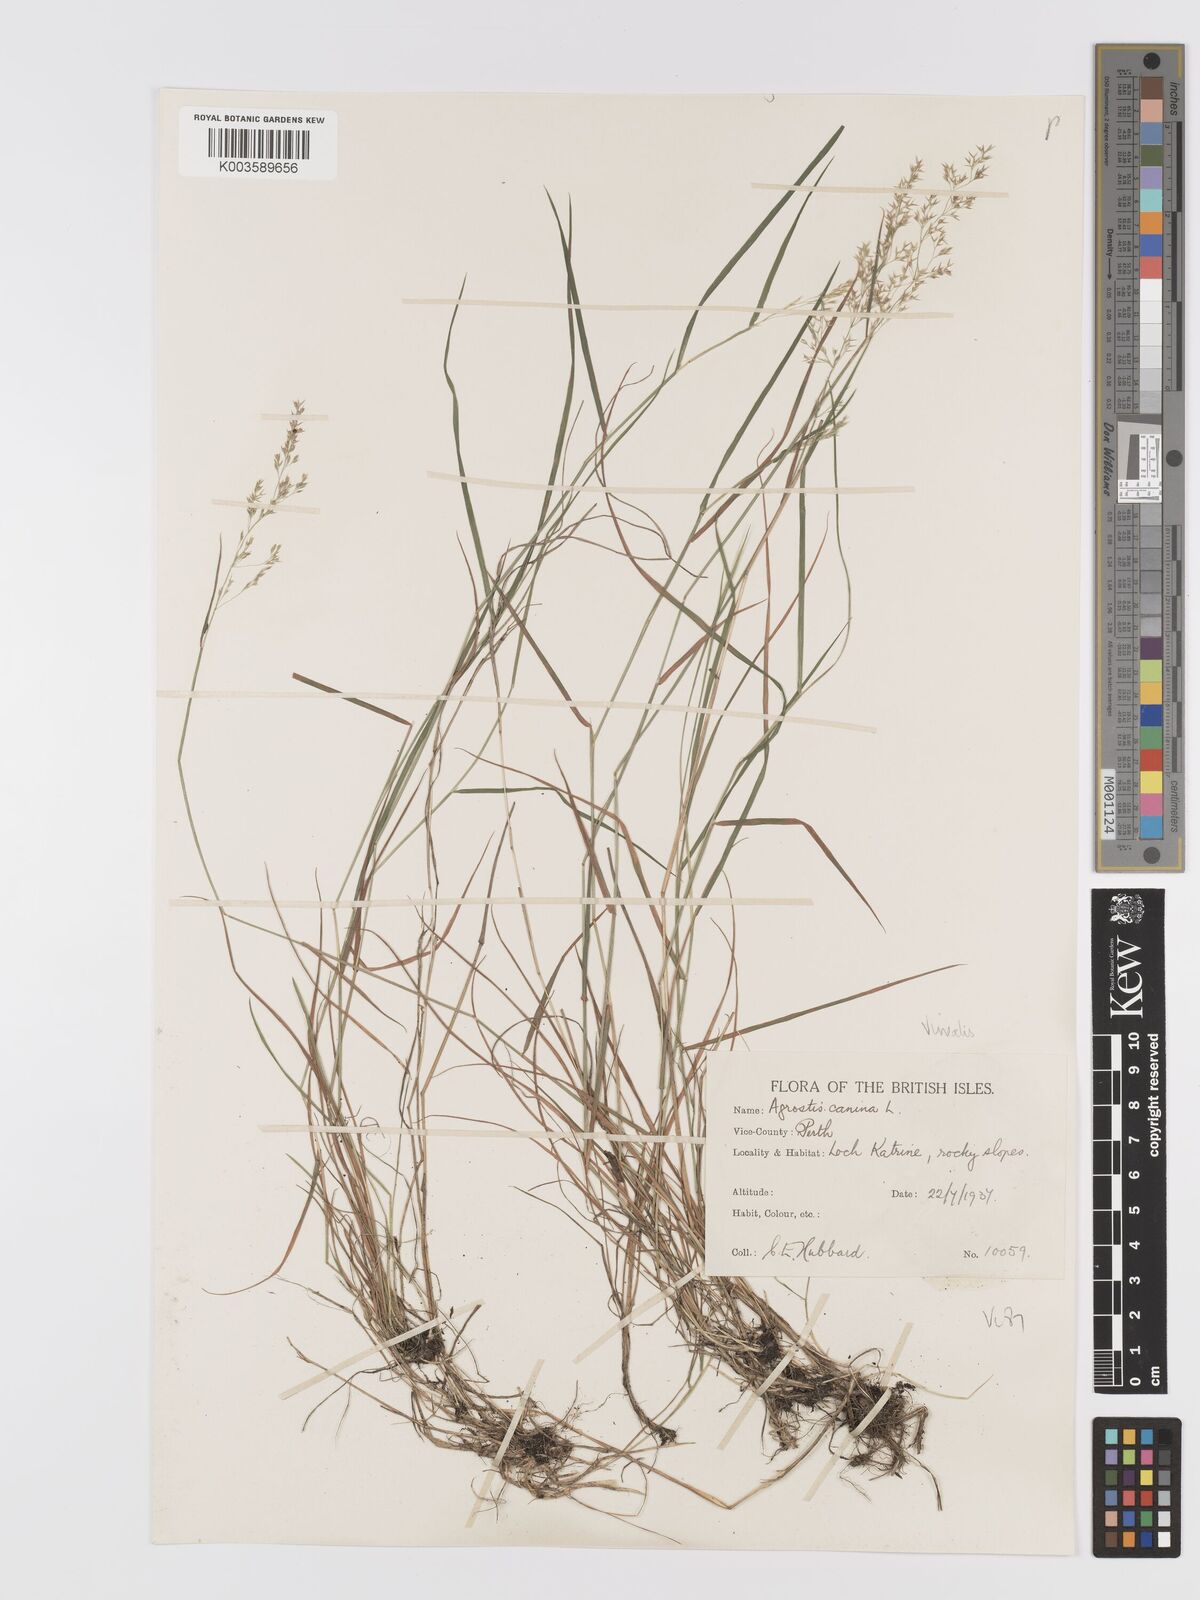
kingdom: Plantae
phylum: Tracheophyta
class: Liliopsida
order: Poales
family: Poaceae
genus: Agrostis
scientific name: Agrostis
